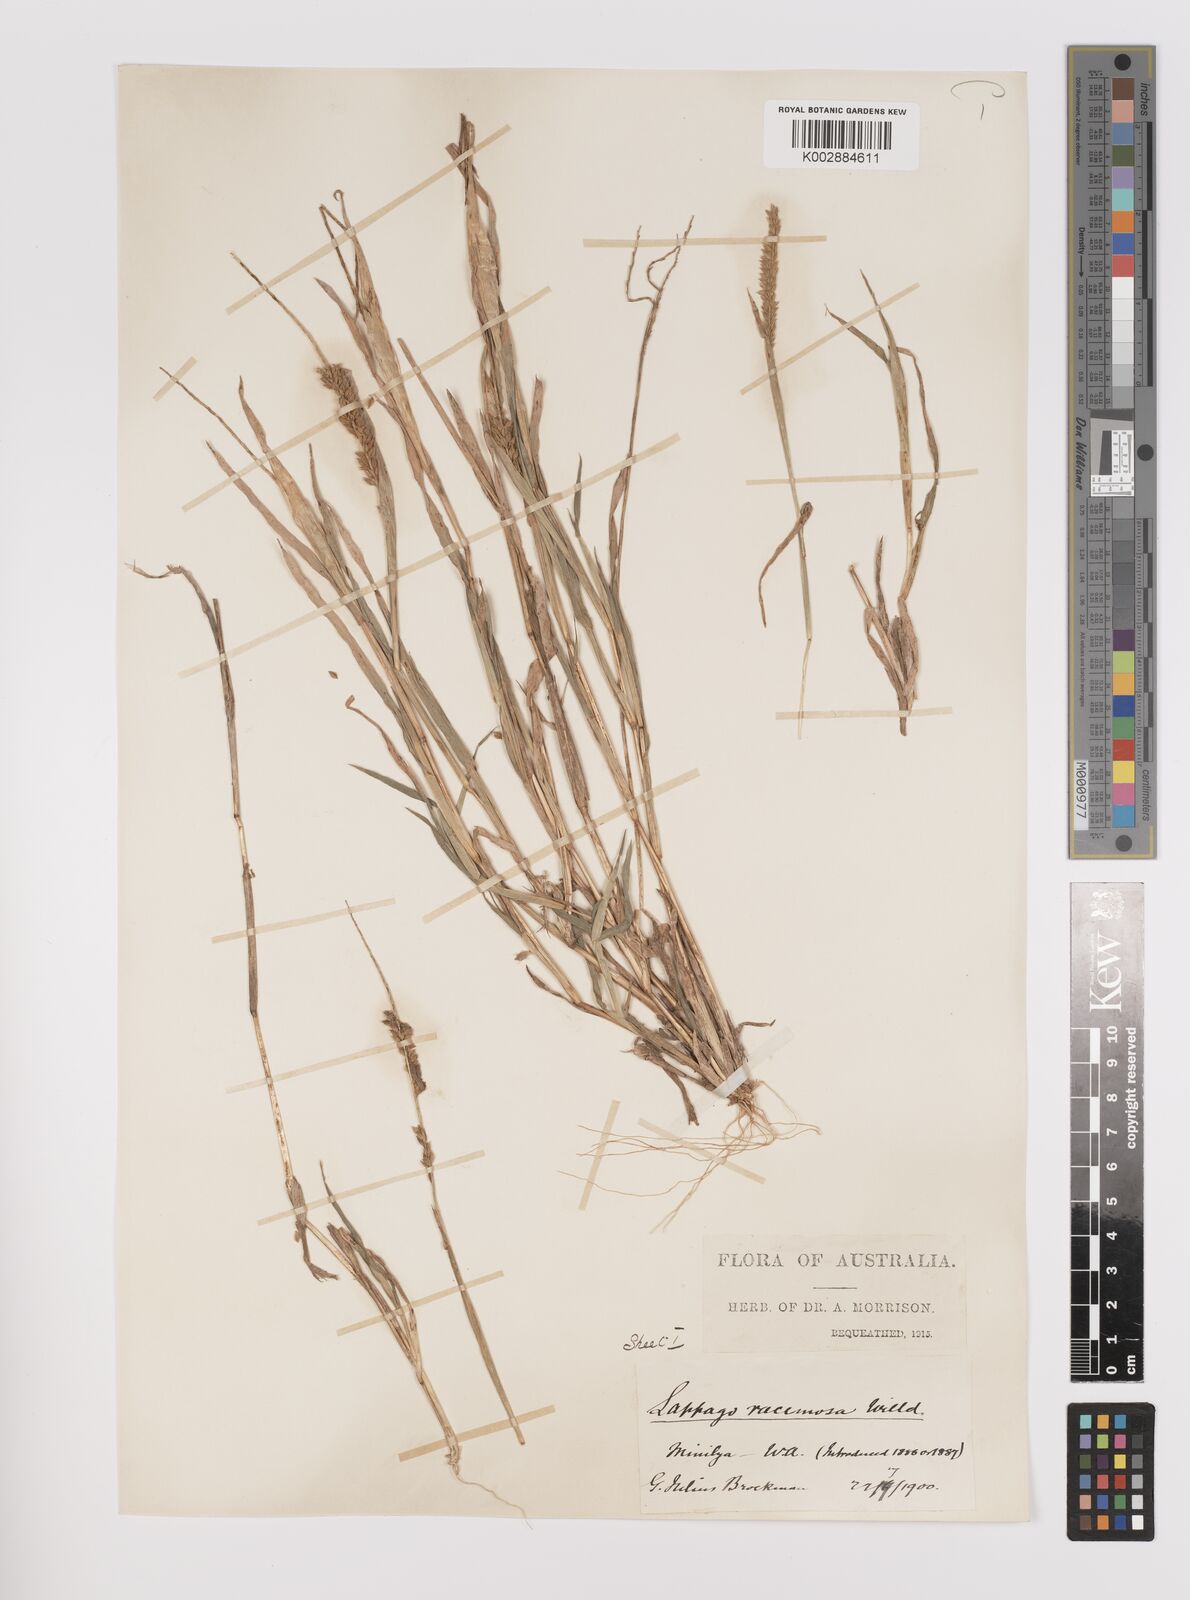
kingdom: Plantae
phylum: Tracheophyta
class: Liliopsida
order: Poales
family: Poaceae
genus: Tragus
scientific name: Tragus australianus
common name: Australian bur-grass
